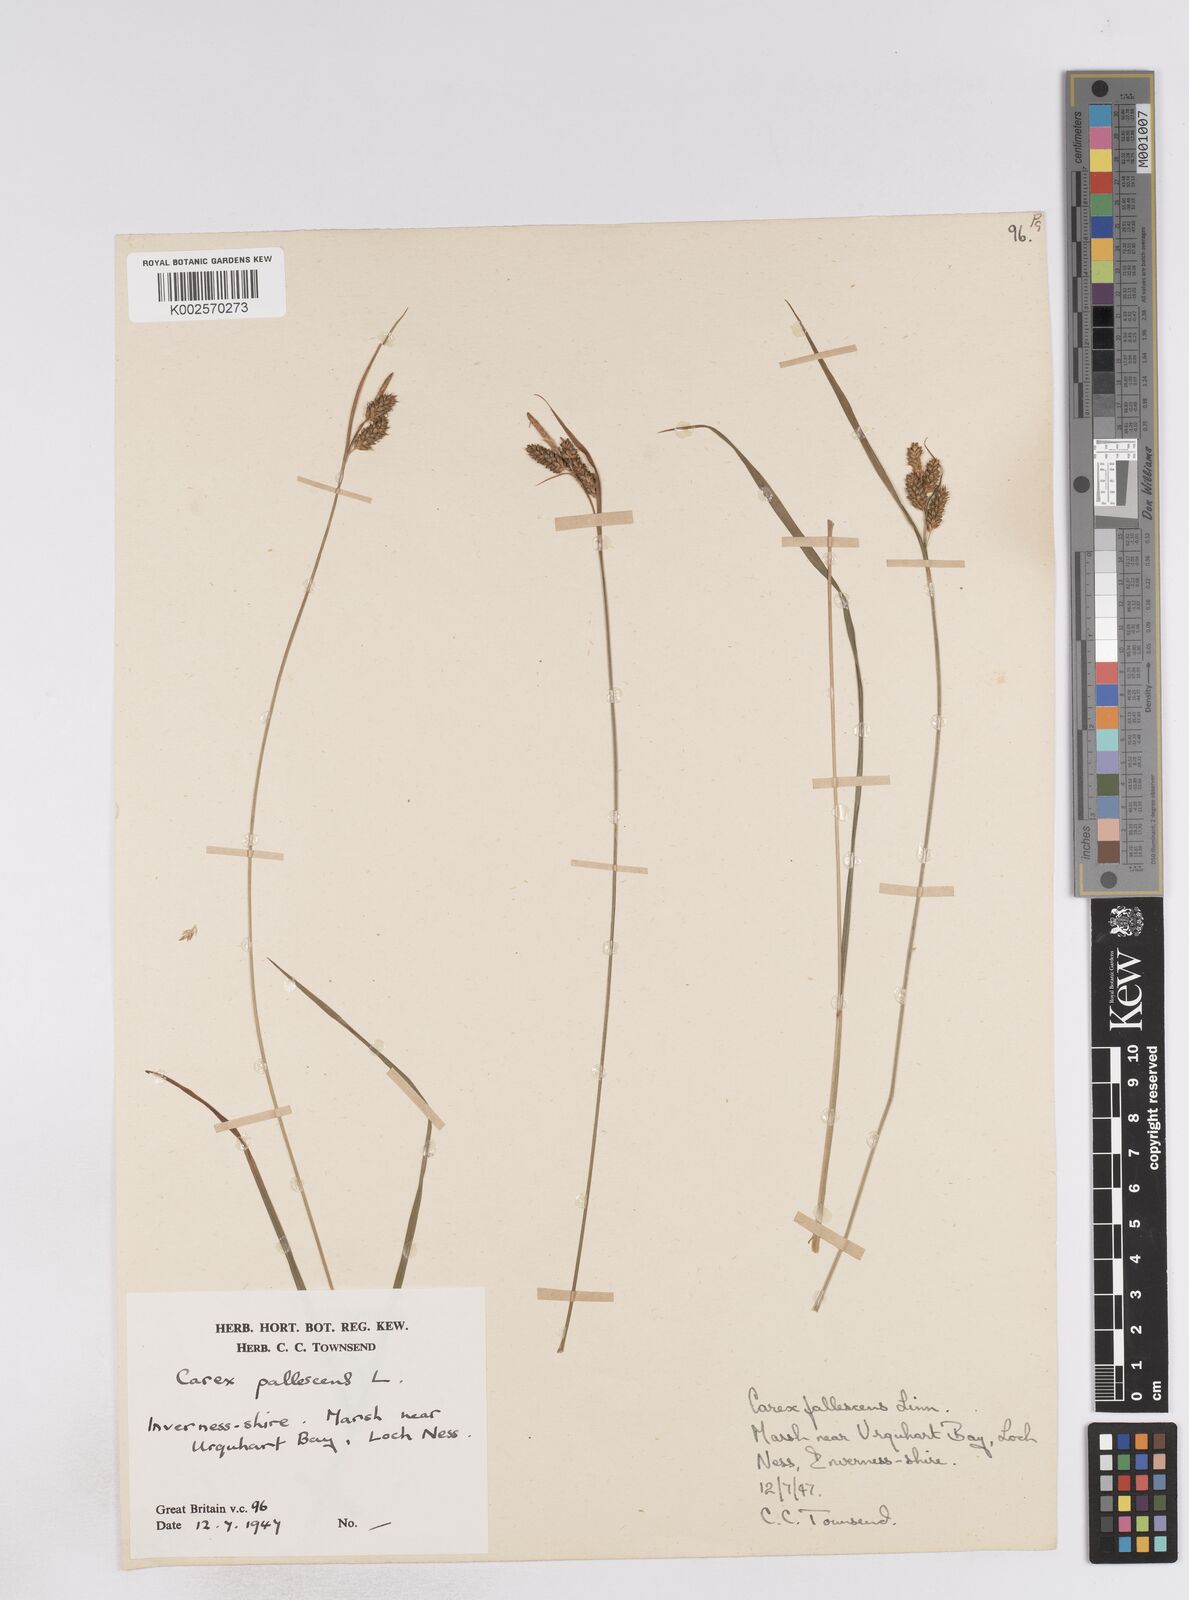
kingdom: Plantae
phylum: Tracheophyta
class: Liliopsida
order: Poales
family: Cyperaceae
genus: Carex
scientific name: Carex pallescens
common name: Pale sedge
